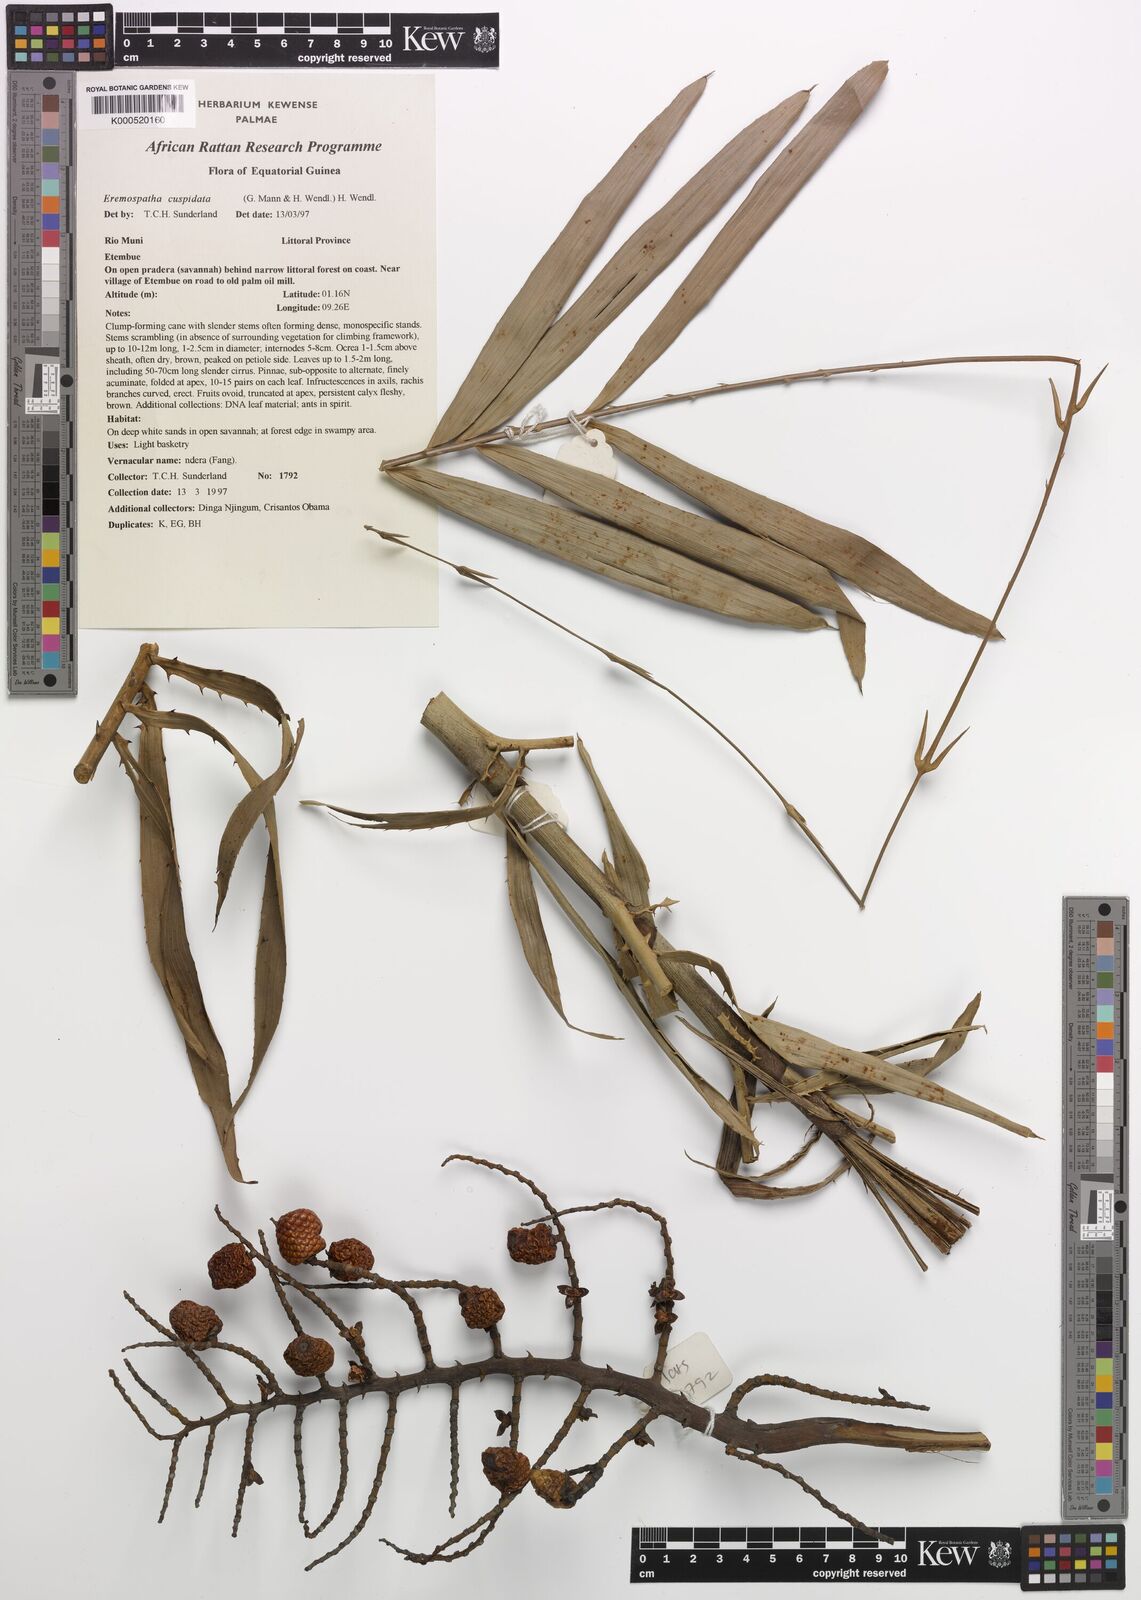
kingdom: Plantae
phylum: Tracheophyta
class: Liliopsida
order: Arecales
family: Arecaceae
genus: Eremospatha
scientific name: Eremospatha cuspidata
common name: Rattan
